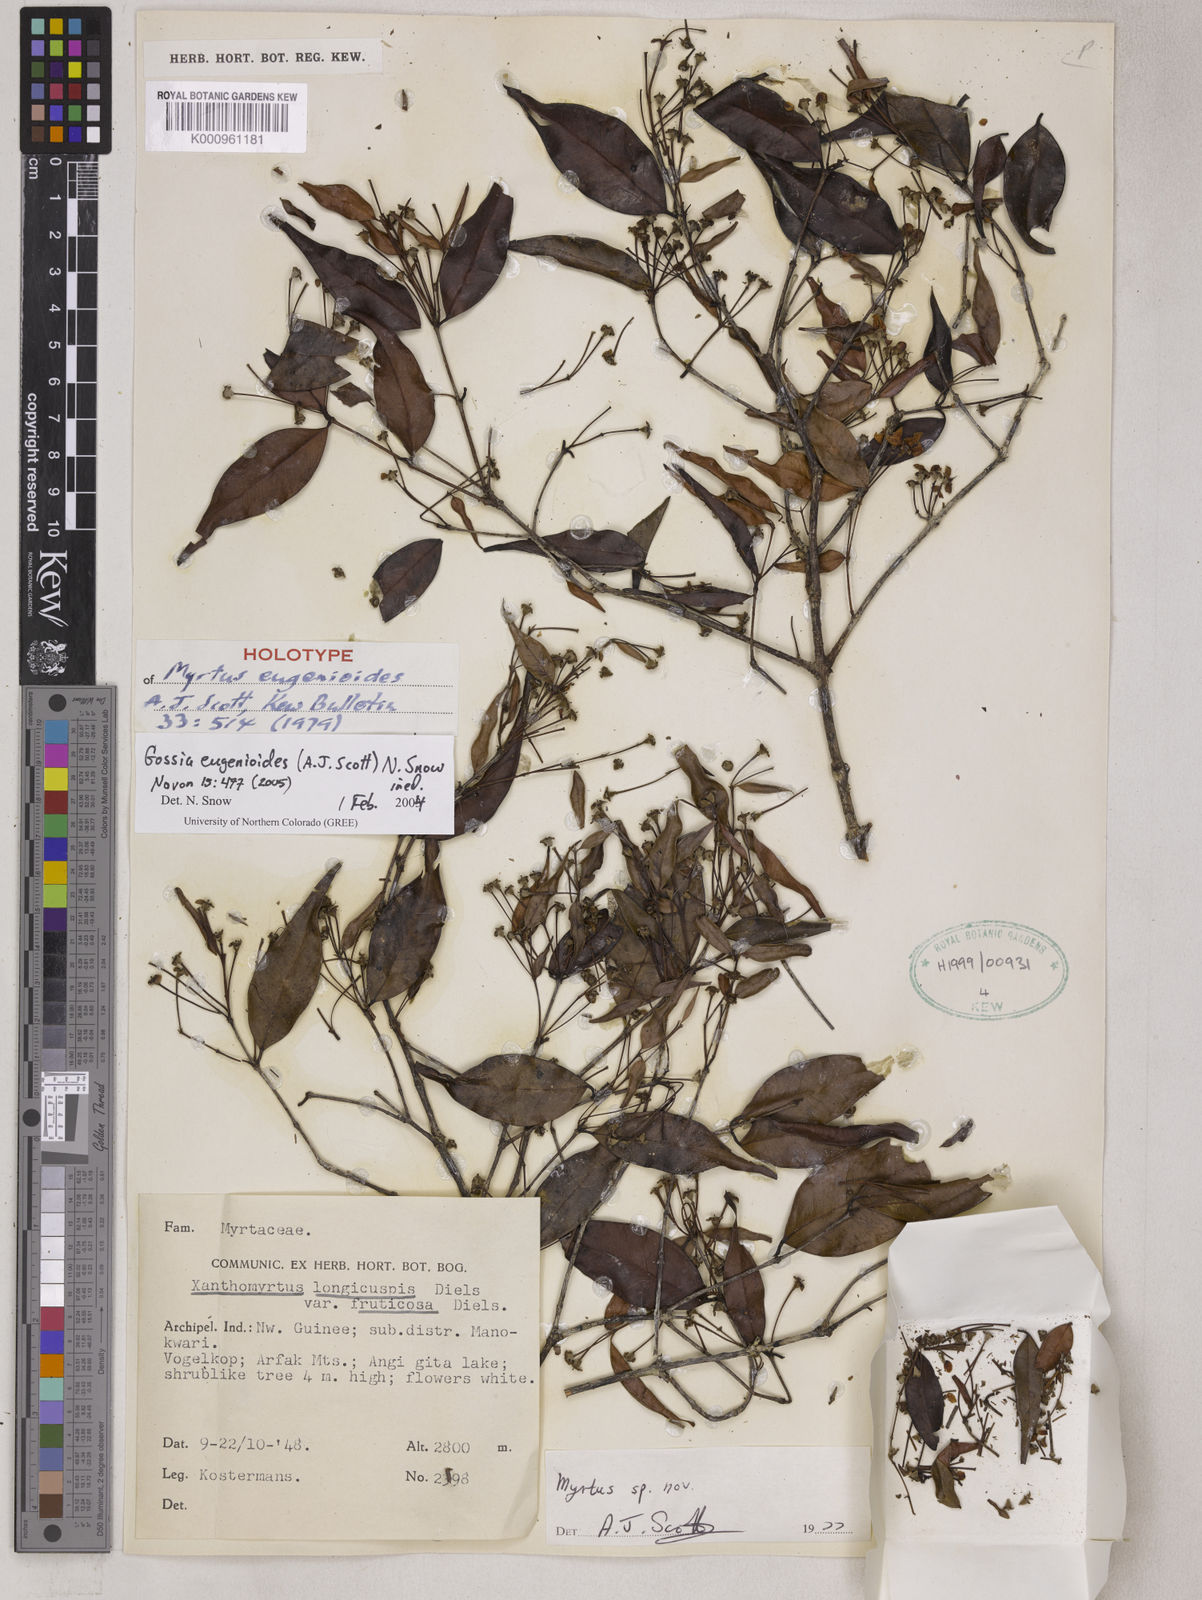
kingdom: Plantae
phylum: Tracheophyta
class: Magnoliopsida
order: Myrtales
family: Myrtaceae
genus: Gossia
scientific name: Gossia eugenioides
